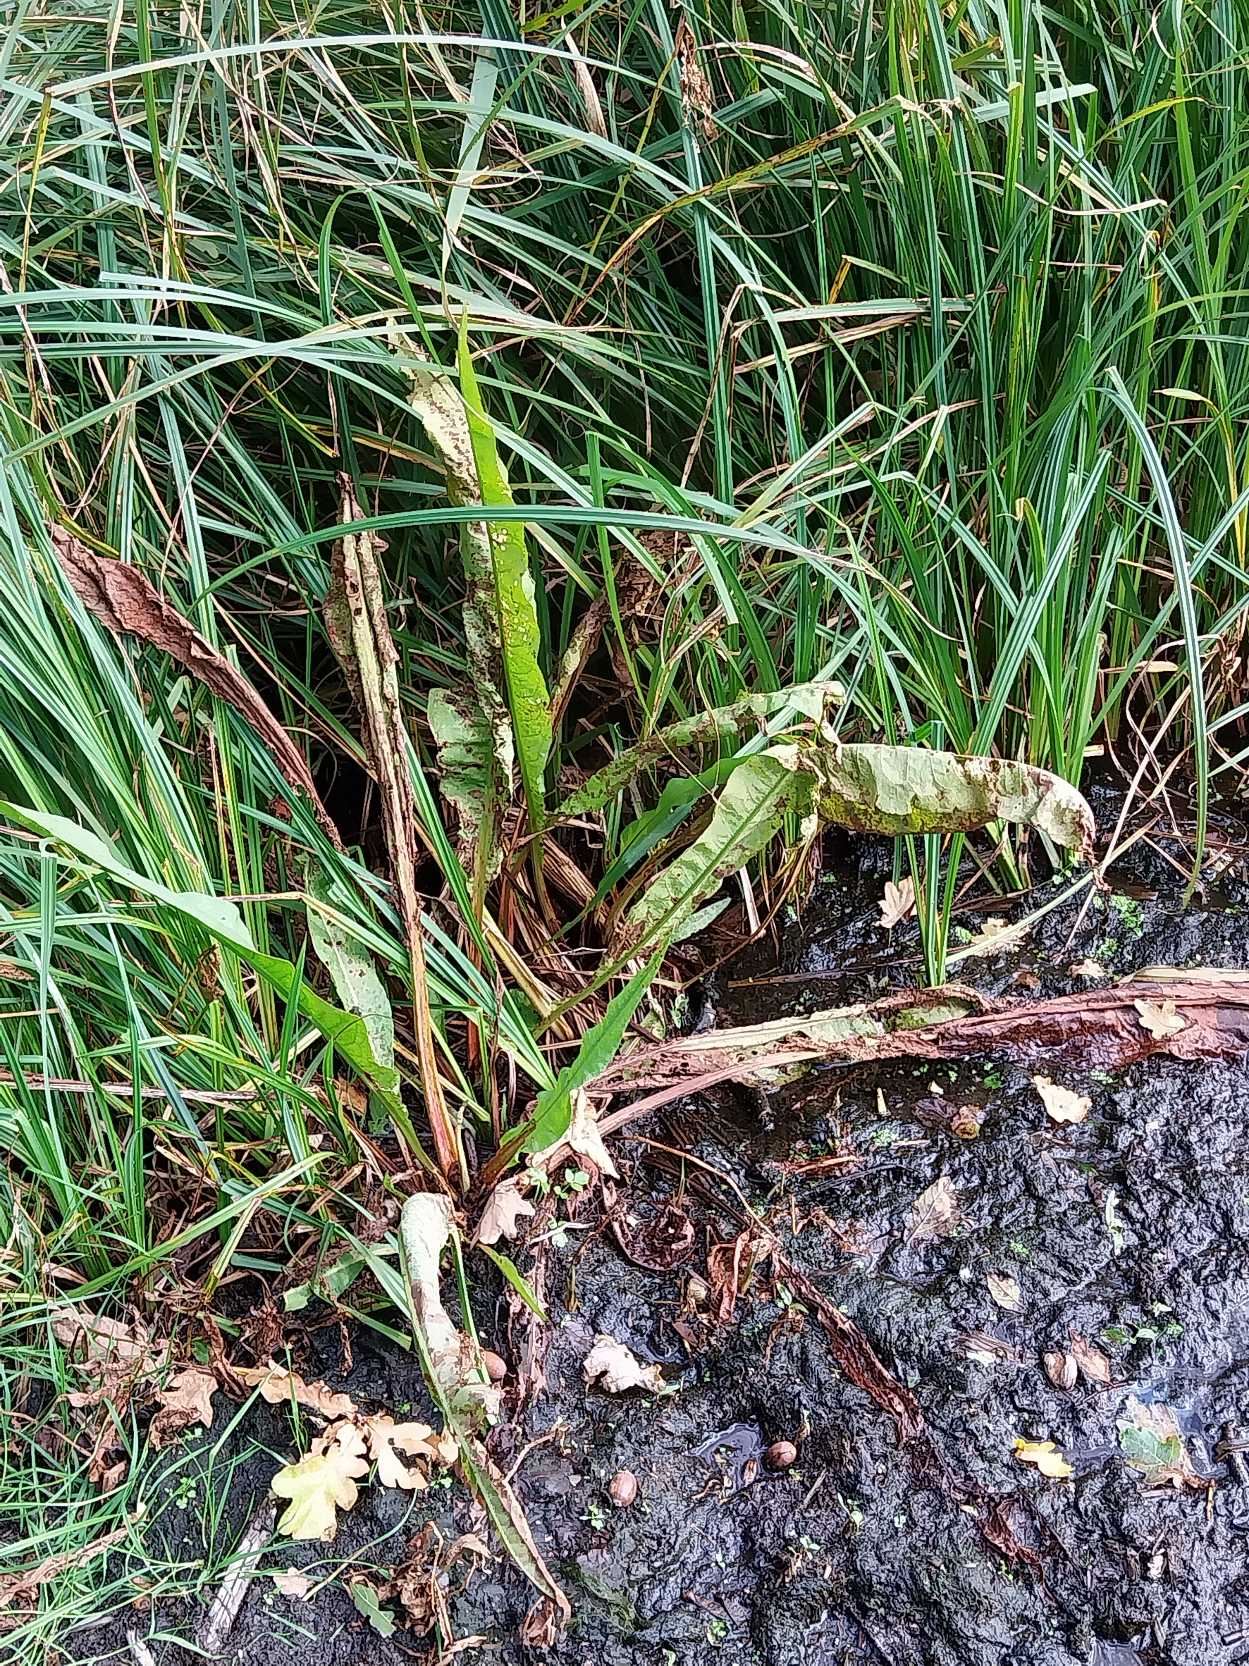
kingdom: Plantae
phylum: Tracheophyta
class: Magnoliopsida
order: Caryophyllales
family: Polygonaceae
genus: Rumex
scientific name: Rumex hydrolapathum
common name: Vand-skræppe
